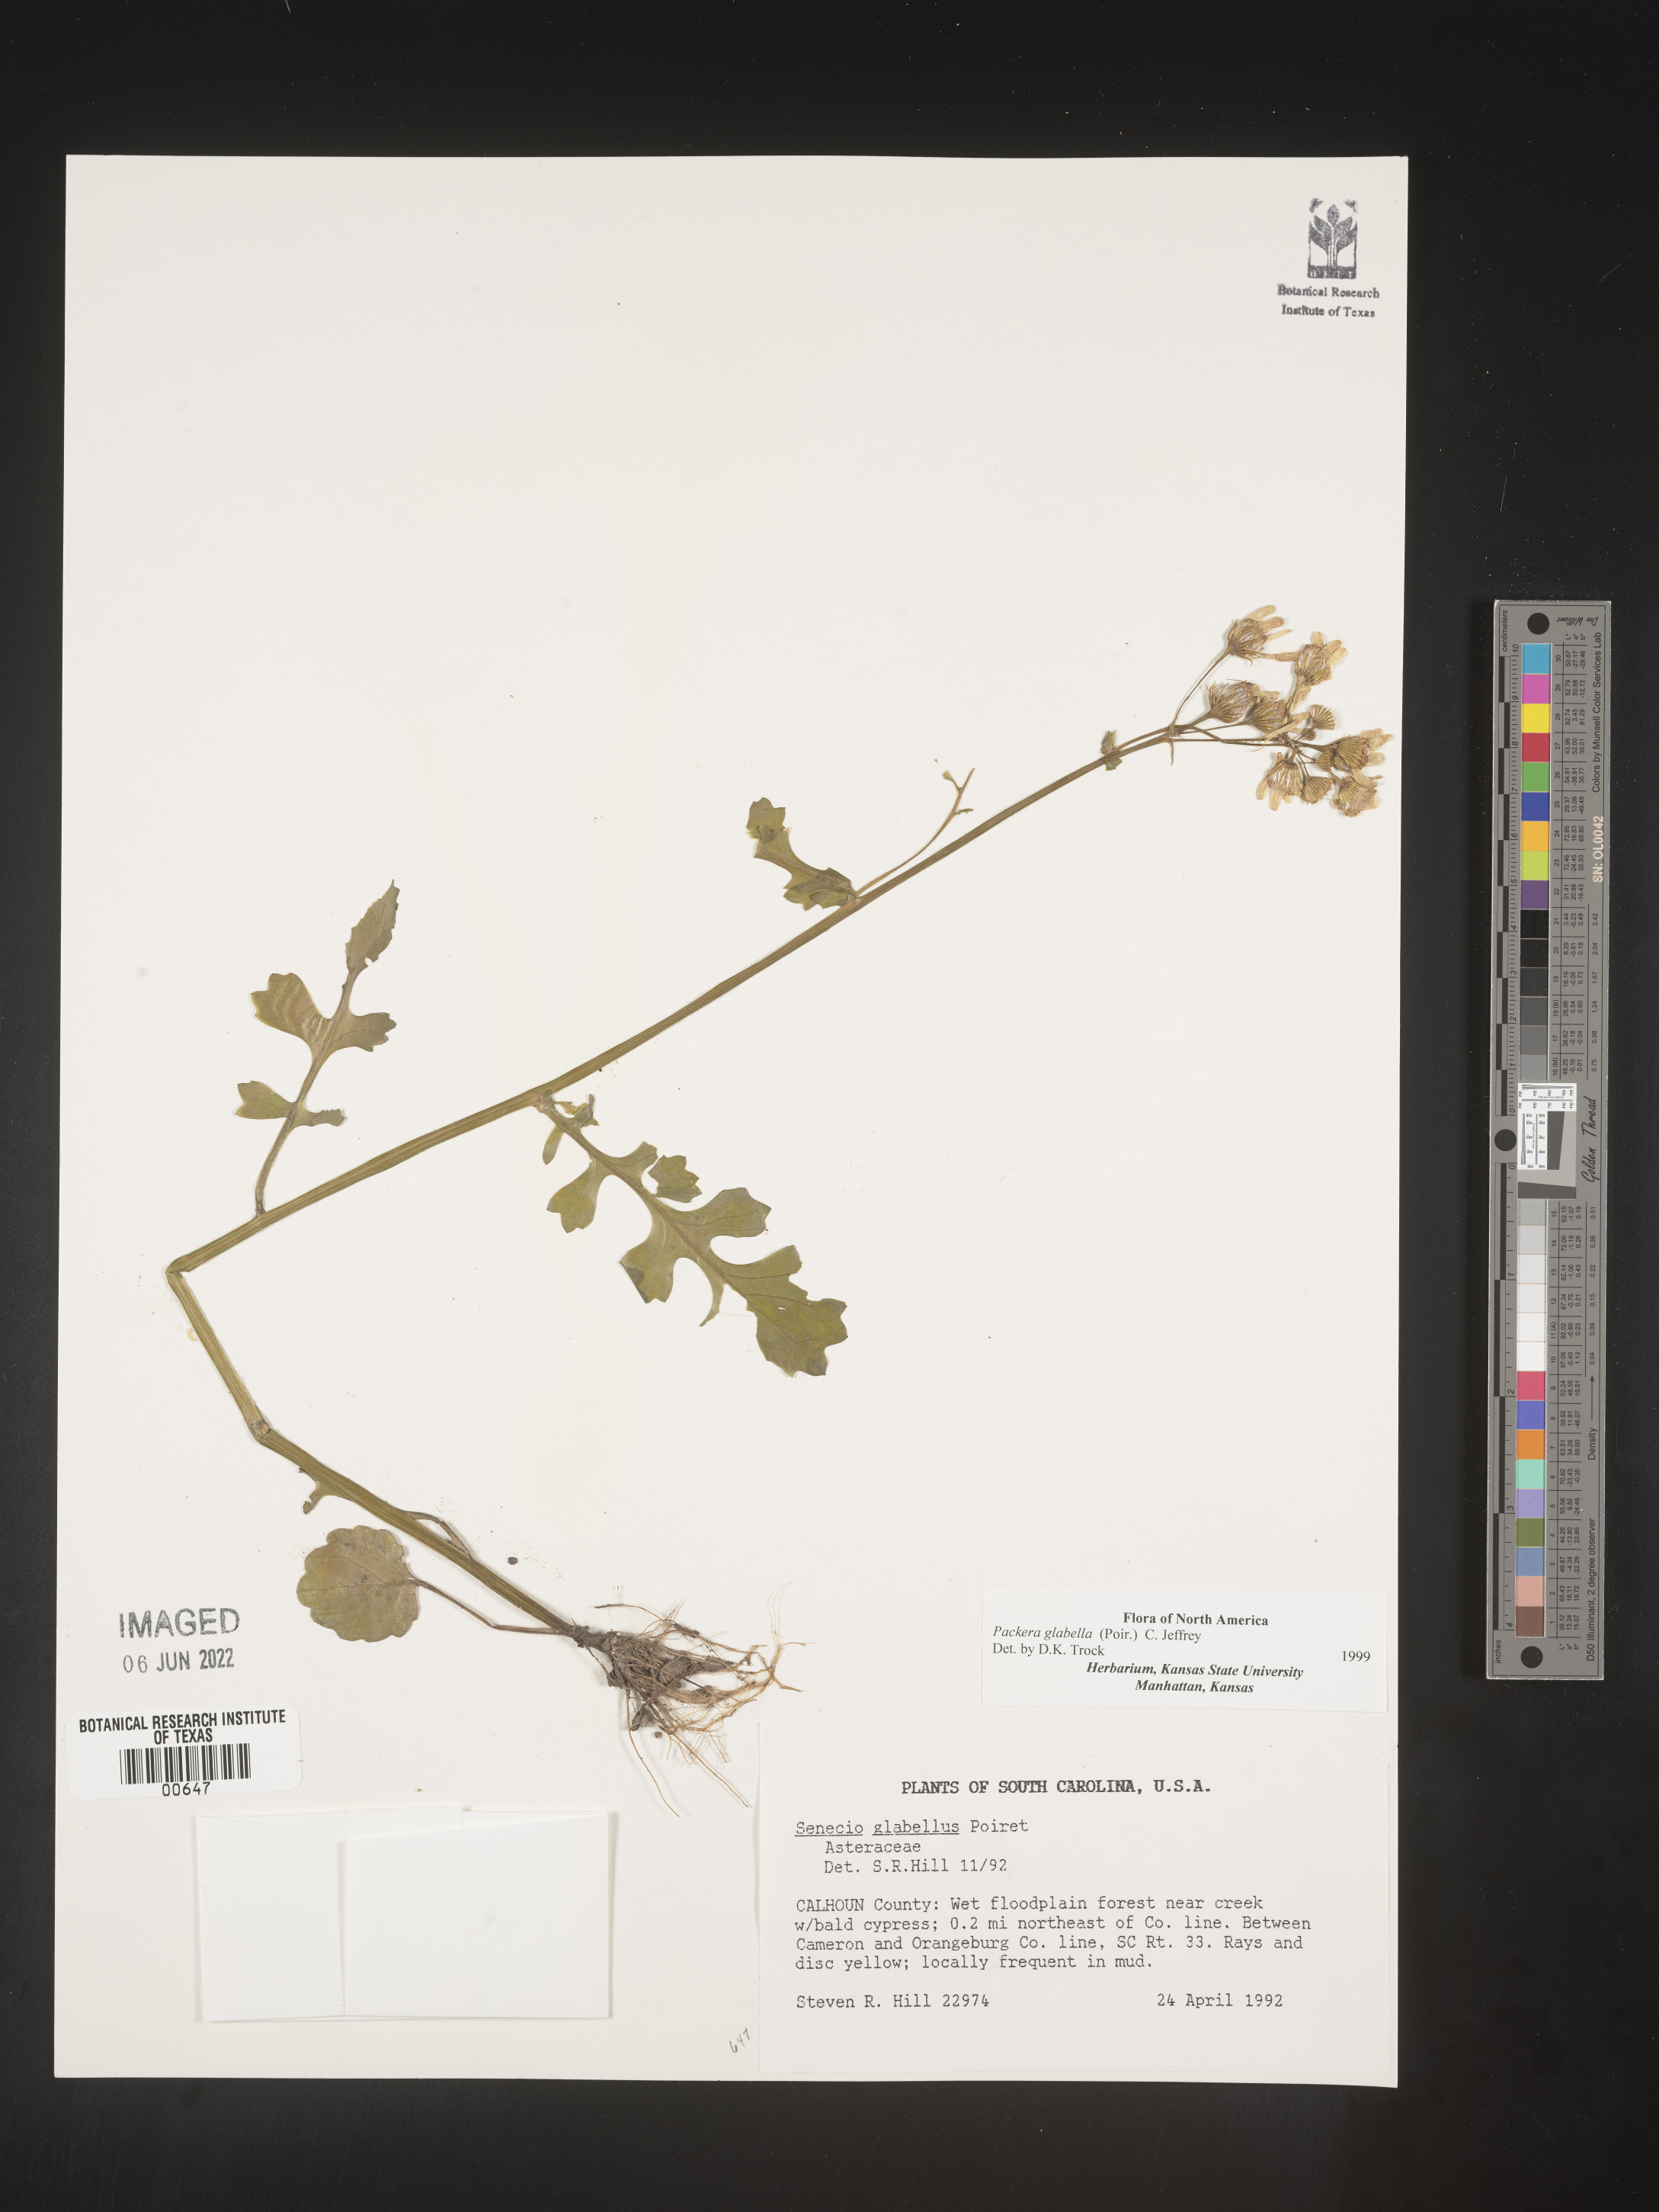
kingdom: Plantae
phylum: Tracheophyta
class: Magnoliopsida
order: Asterales
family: Asteraceae
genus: Packera
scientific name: Packera glabella
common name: Butterweed
